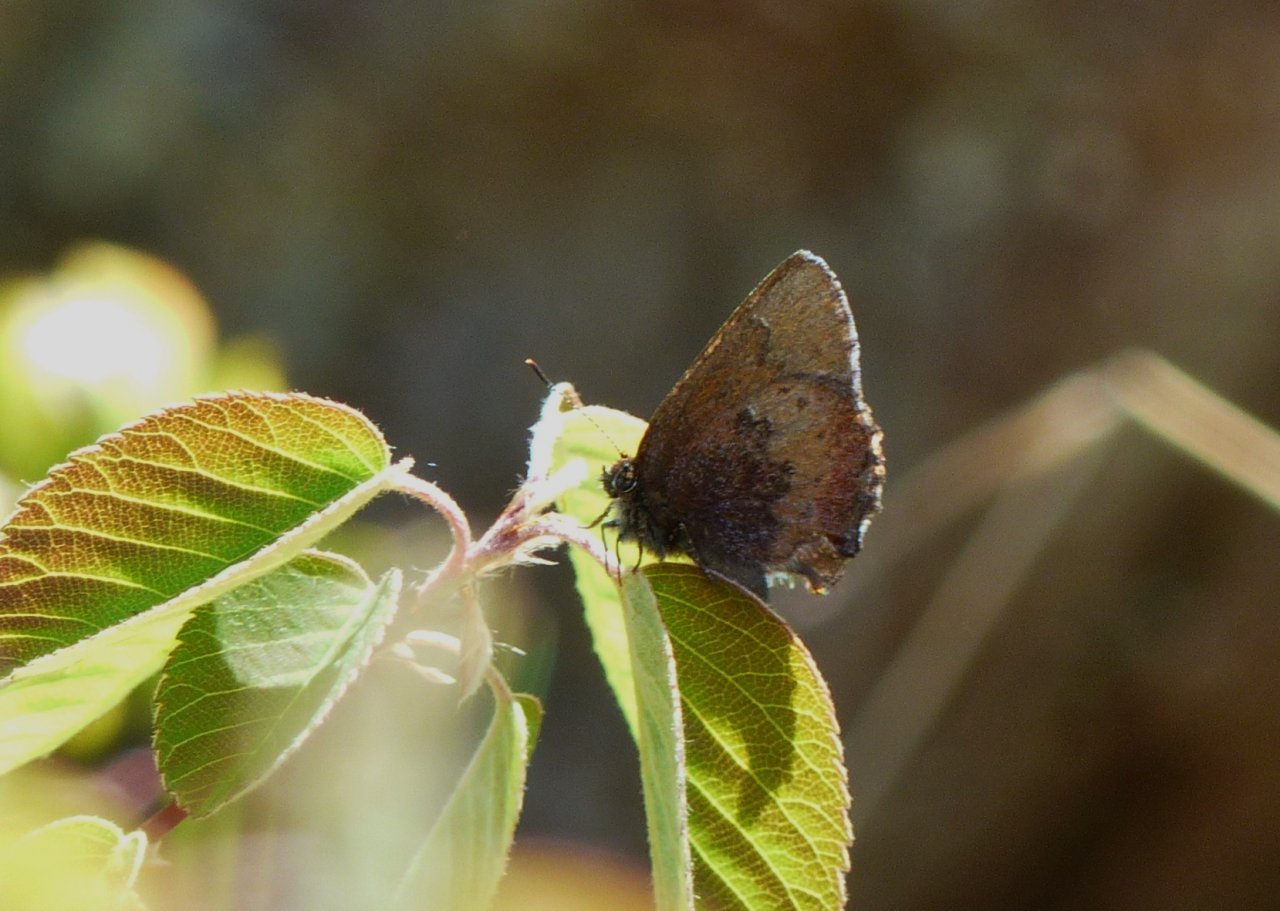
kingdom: Animalia
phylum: Arthropoda
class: Insecta
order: Lepidoptera
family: Lycaenidae
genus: Incisalia
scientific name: Incisalia irioides
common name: Brown Elfin
